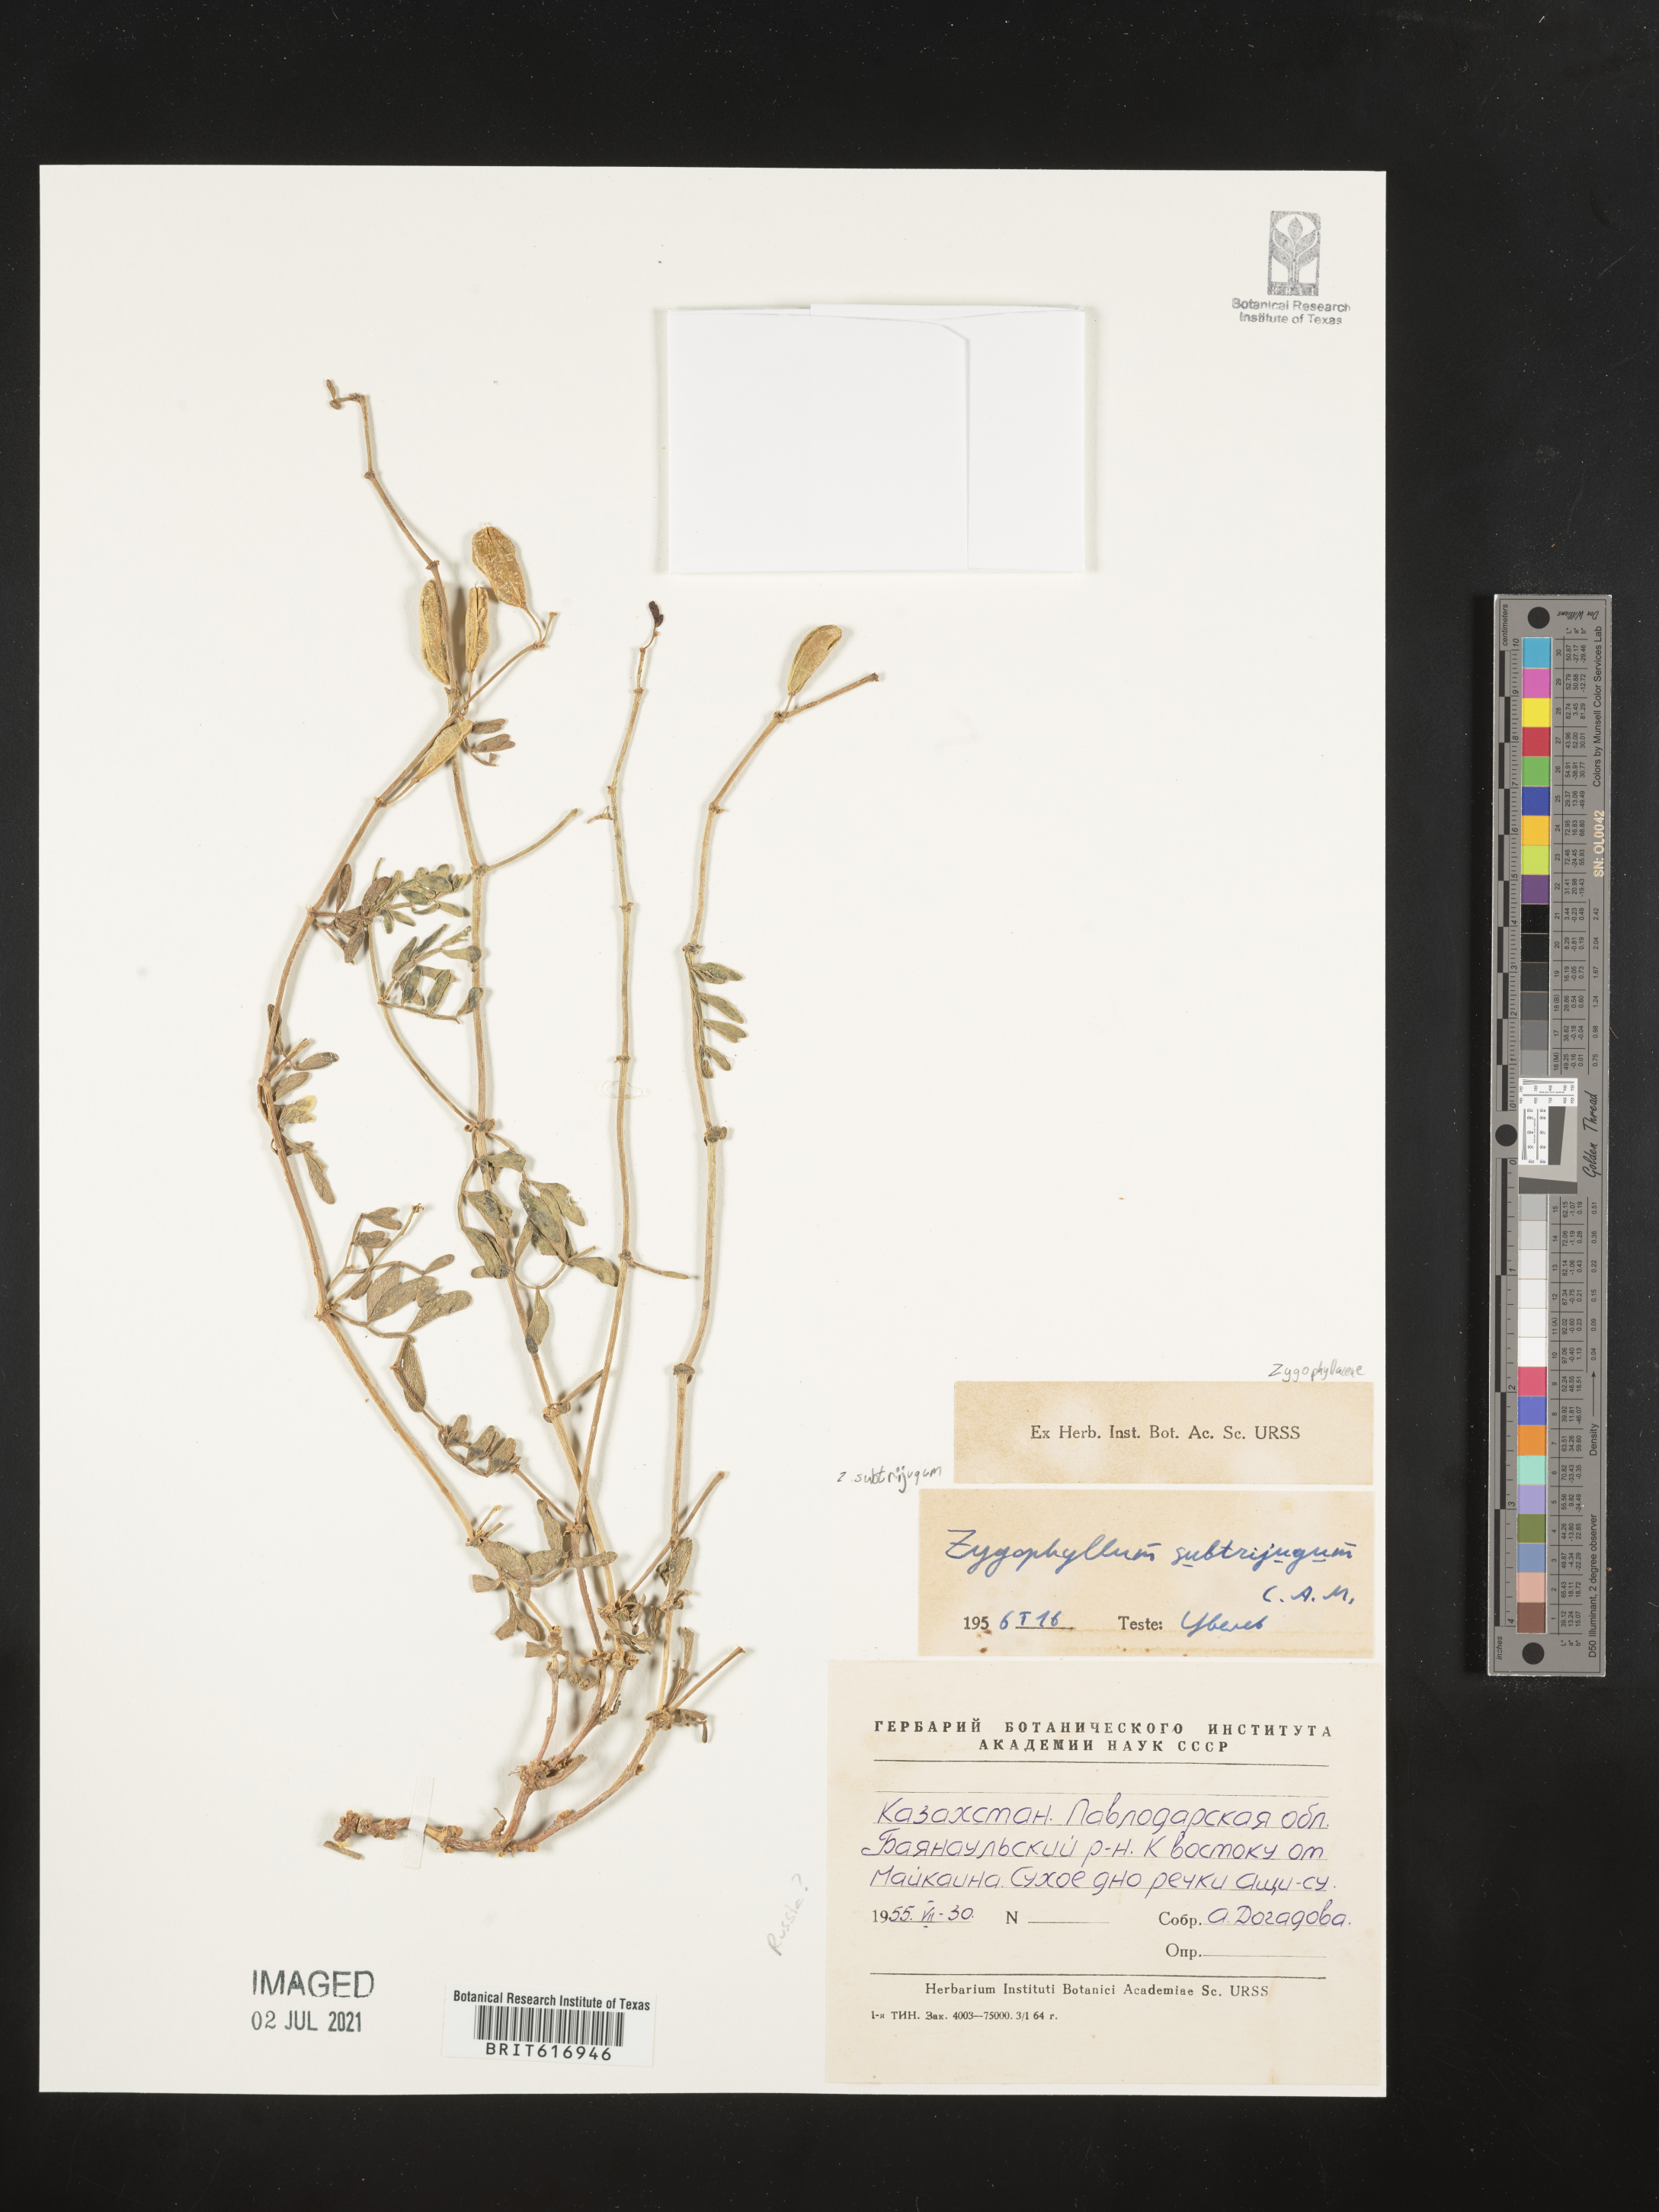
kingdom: Plantae
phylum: Tracheophyta
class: Magnoliopsida
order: Zygophyllales
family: Zygophyllaceae
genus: Zygophyllum
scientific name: Zygophyllum subtrijugum
